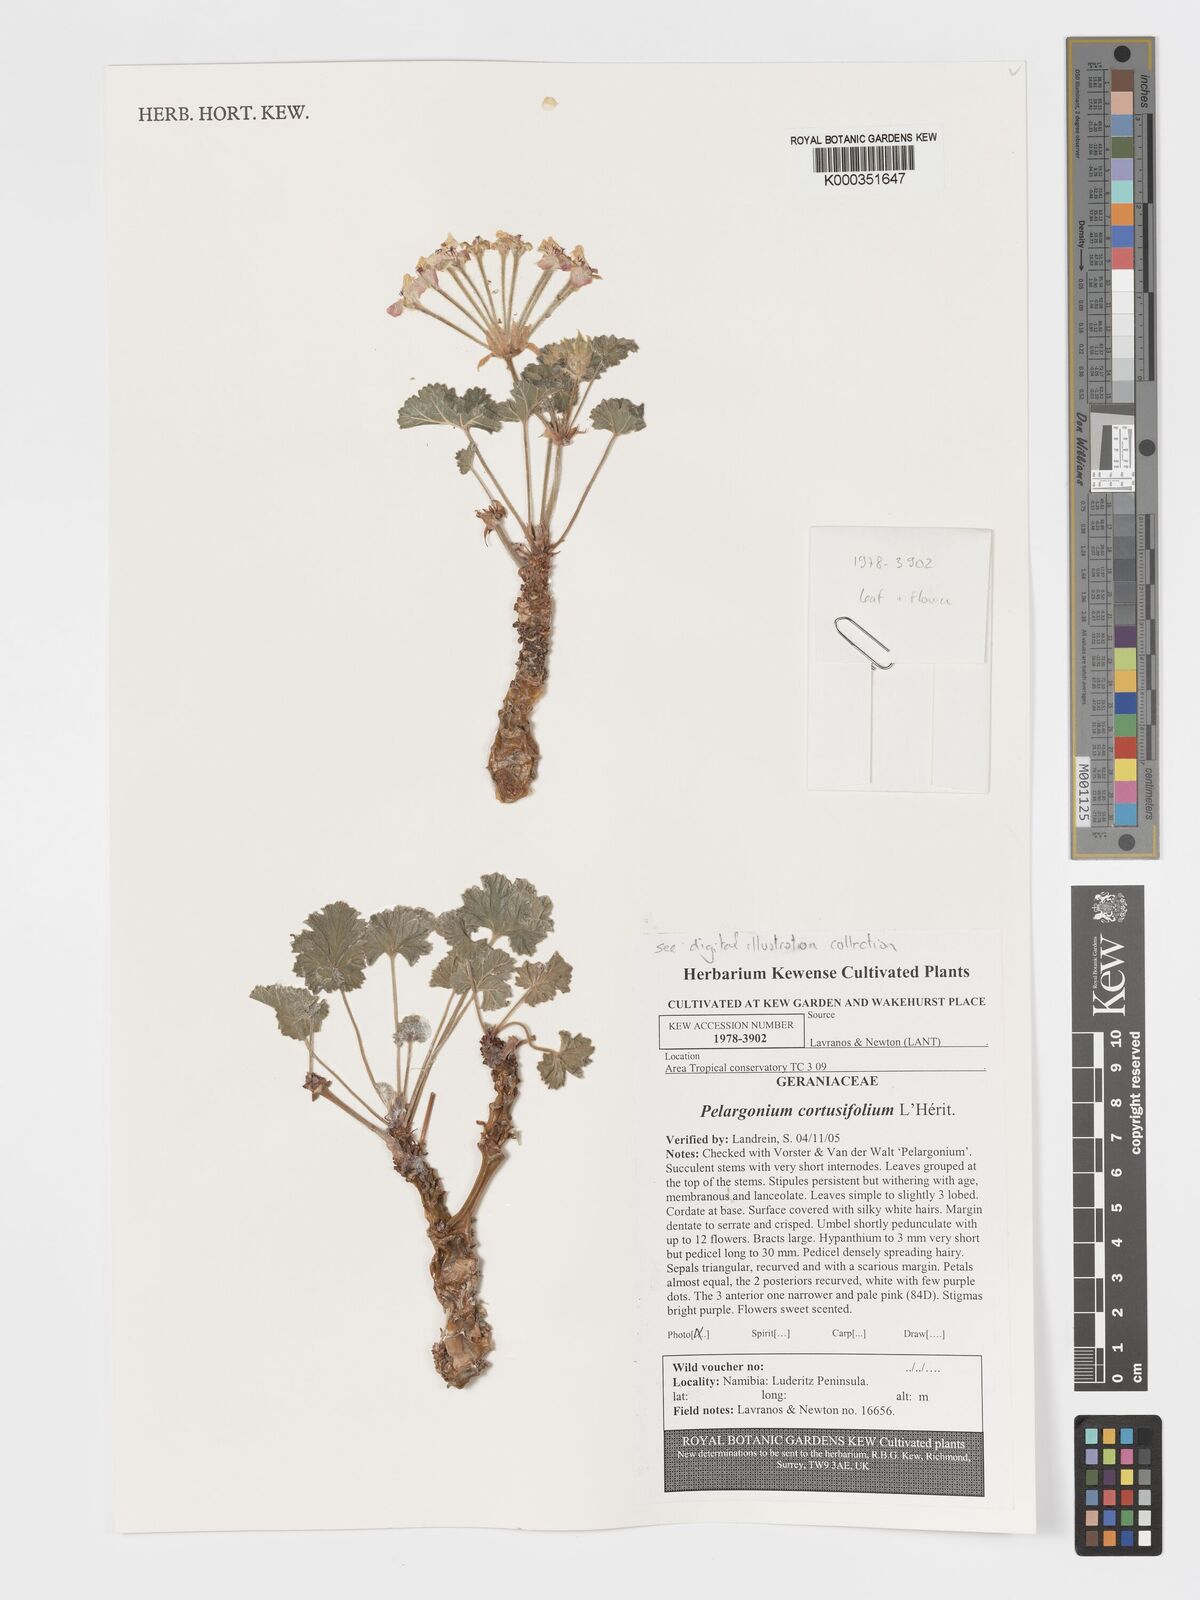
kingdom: Plantae
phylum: Tracheophyta
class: Magnoliopsida
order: Geraniales
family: Geraniaceae
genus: Pelargonium
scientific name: Pelargonium
